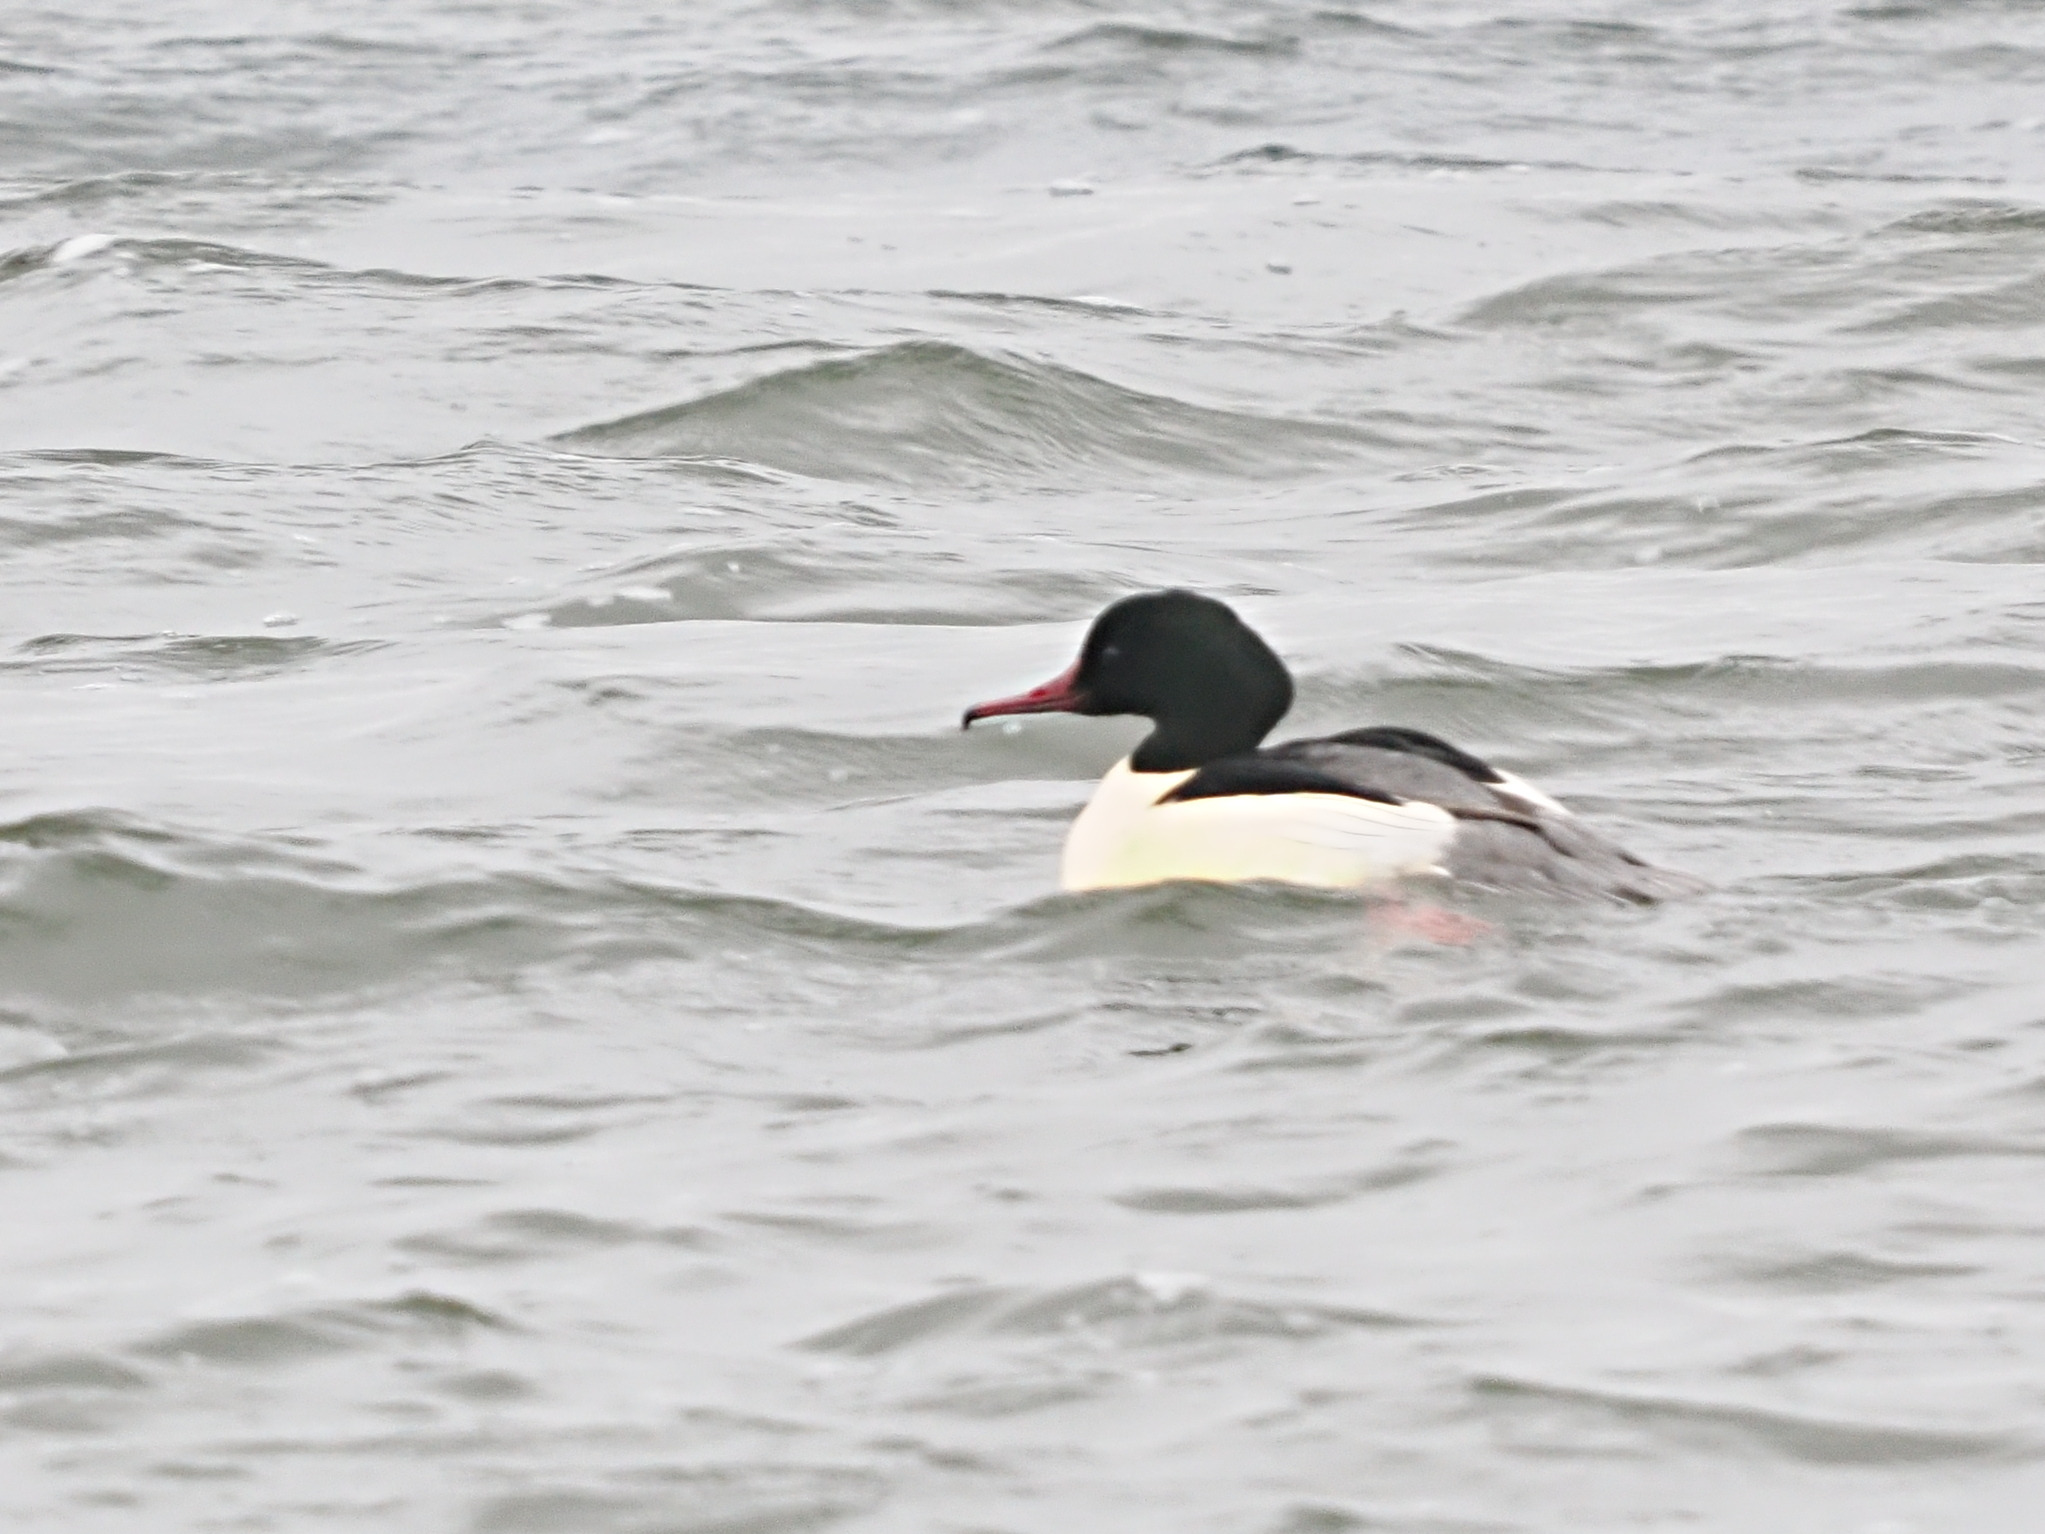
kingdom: Animalia
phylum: Chordata
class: Aves
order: Anseriformes
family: Anatidae
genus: Mergus
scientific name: Mergus merganser
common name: Stor skallesluger
